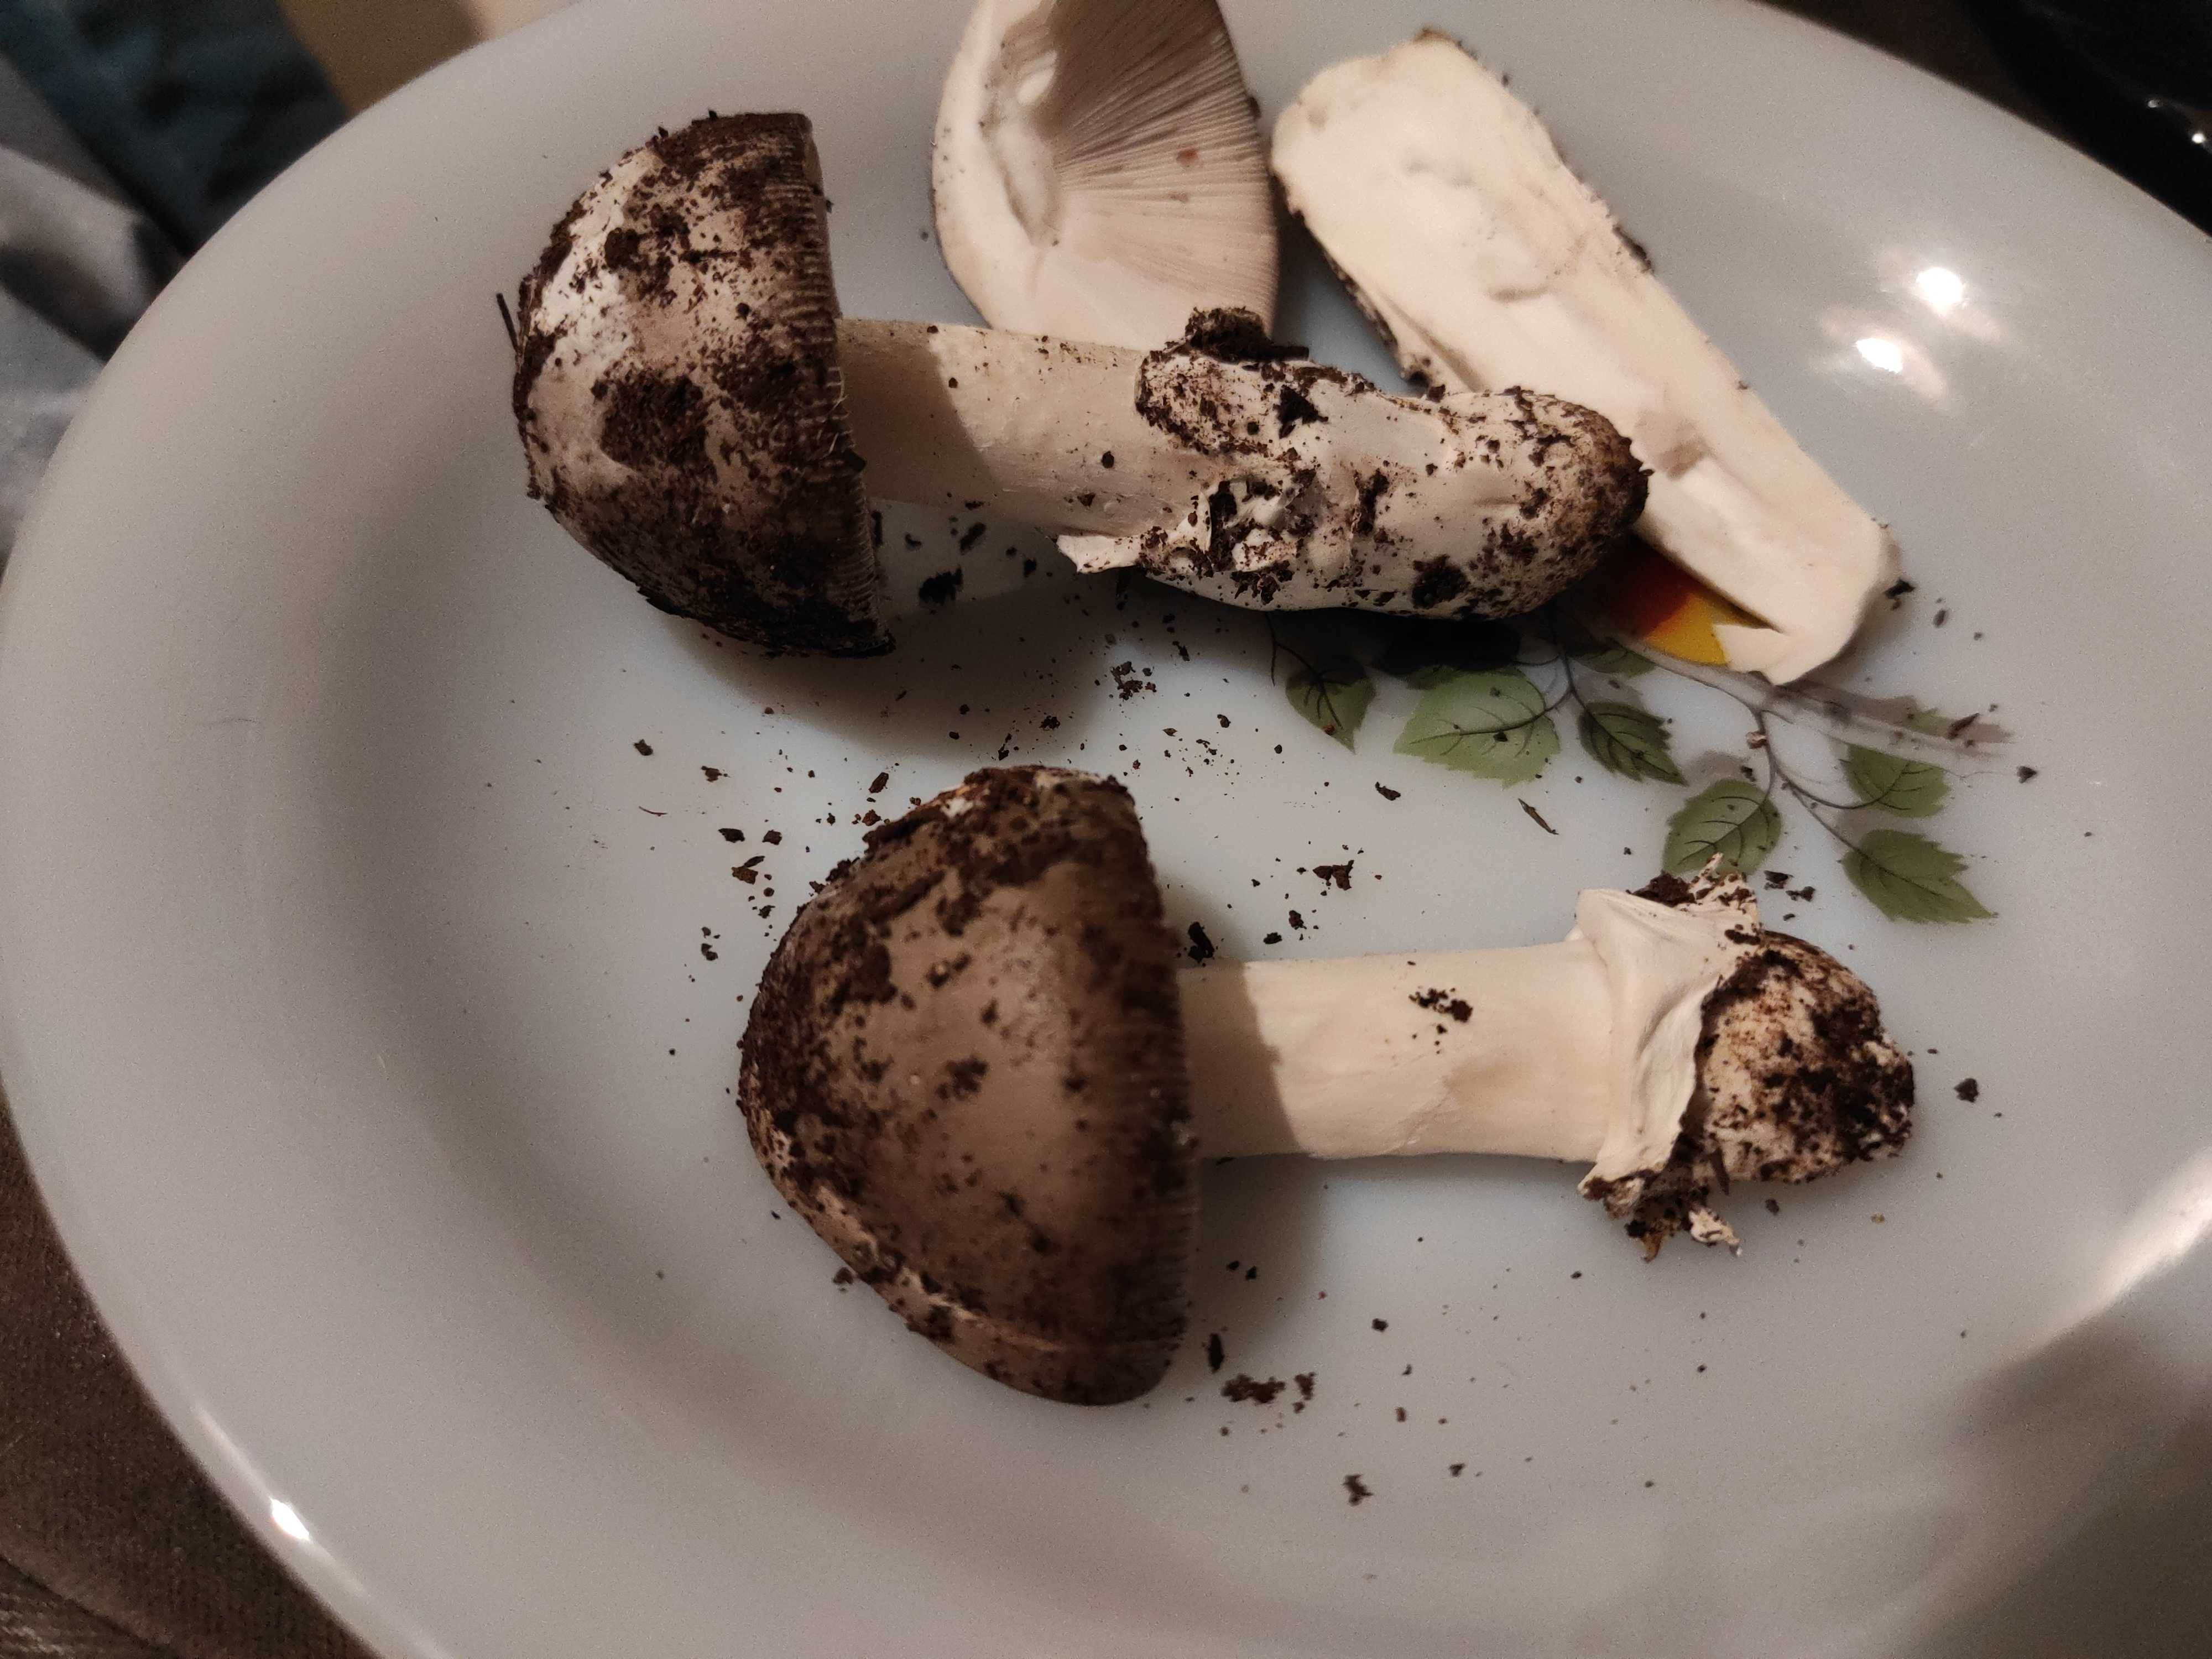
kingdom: Fungi
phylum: Basidiomycota
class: Agaricomycetes
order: Agaricales
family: Amanitaceae
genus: Amanita
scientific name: Amanita
